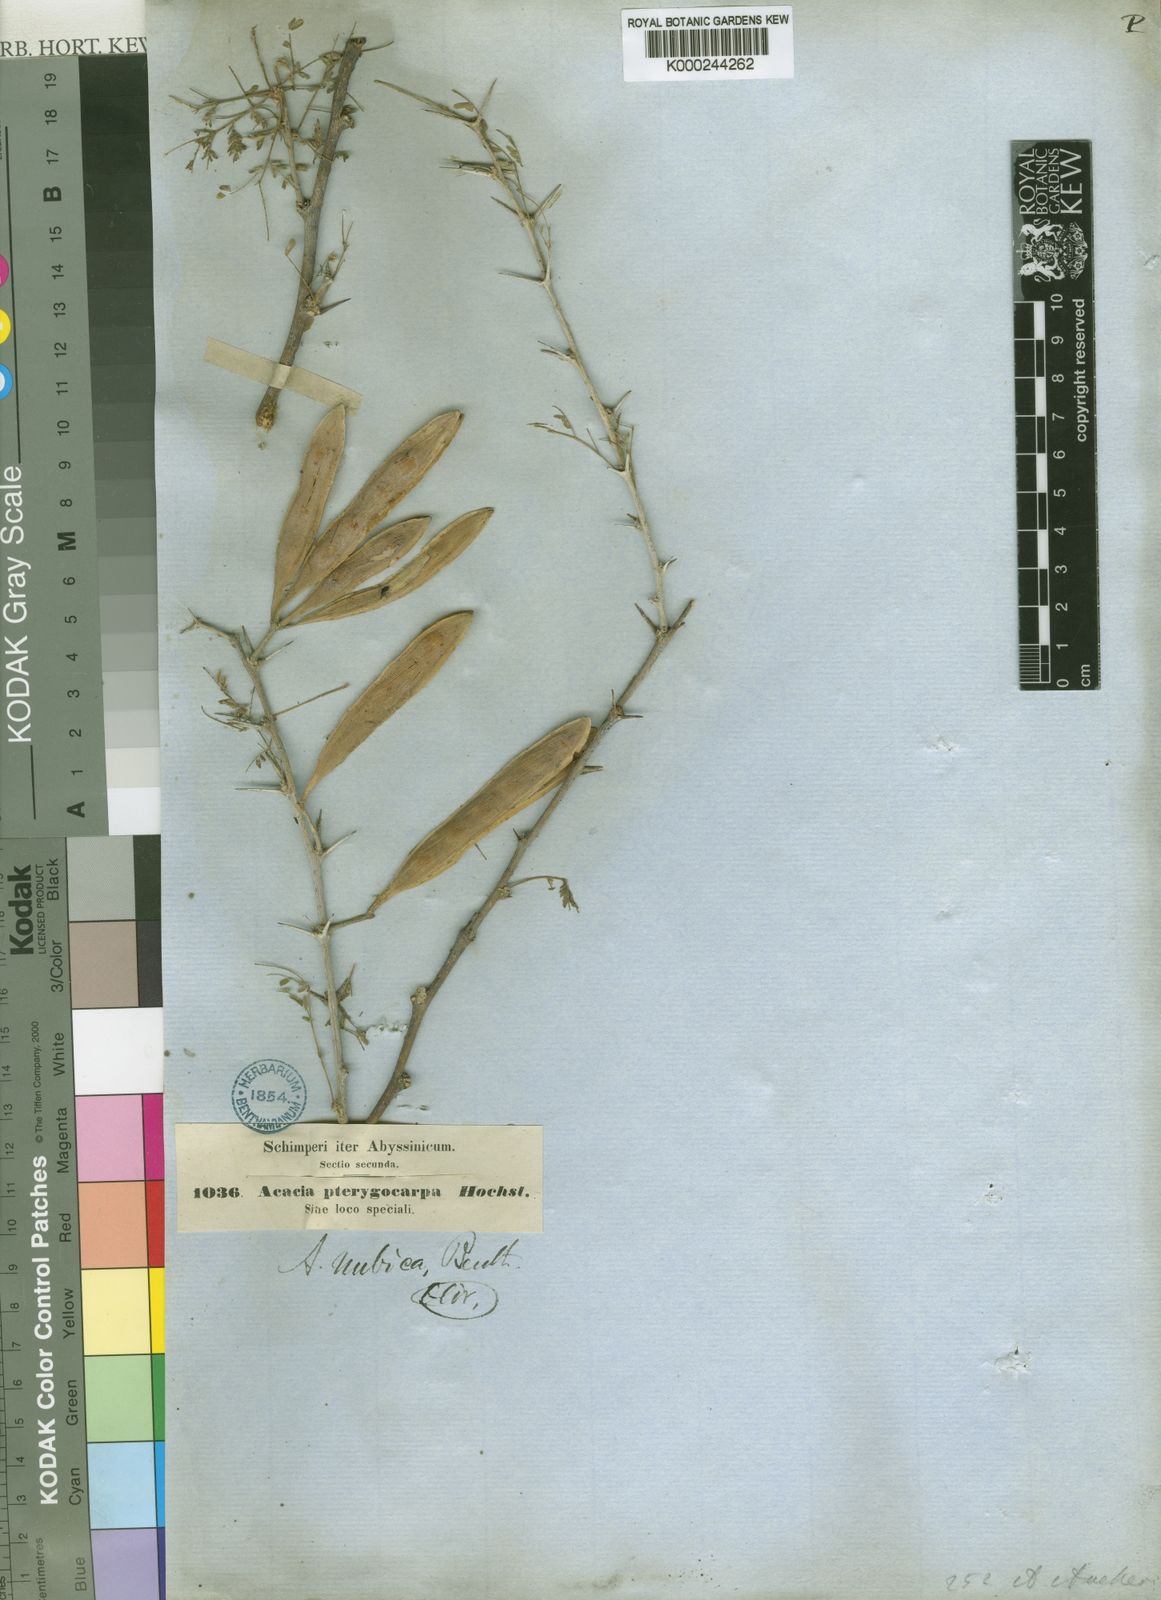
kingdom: Plantae
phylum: Tracheophyta
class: Magnoliopsida
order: Fabales
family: Fabaceae
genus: Vachellia
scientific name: Vachellia oerfota
